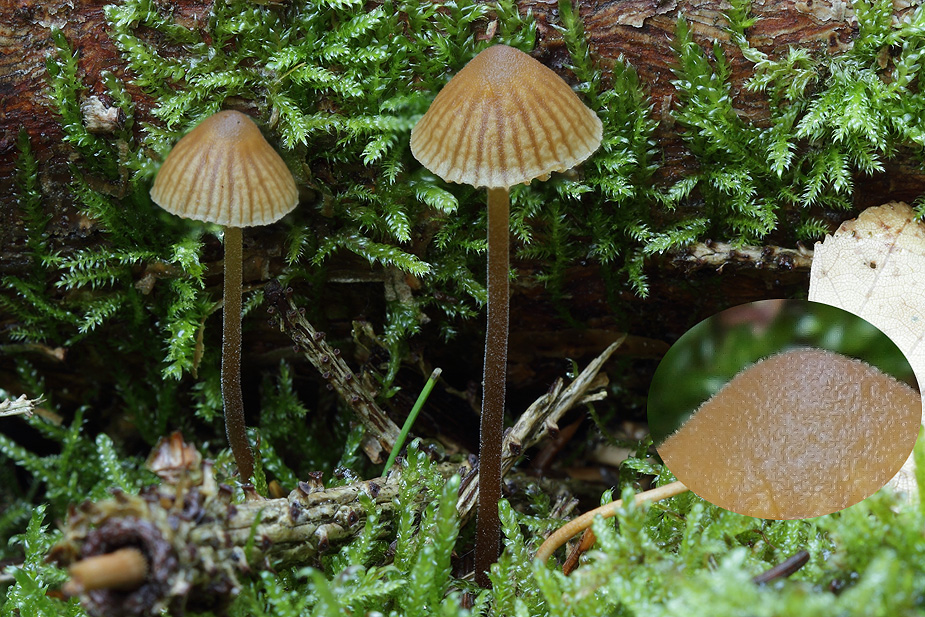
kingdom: Fungi
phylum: Basidiomycota
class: Agaricomycetes
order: Agaricales
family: Hymenogastraceae
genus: Galerina
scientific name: Galerina atkinsoniana
